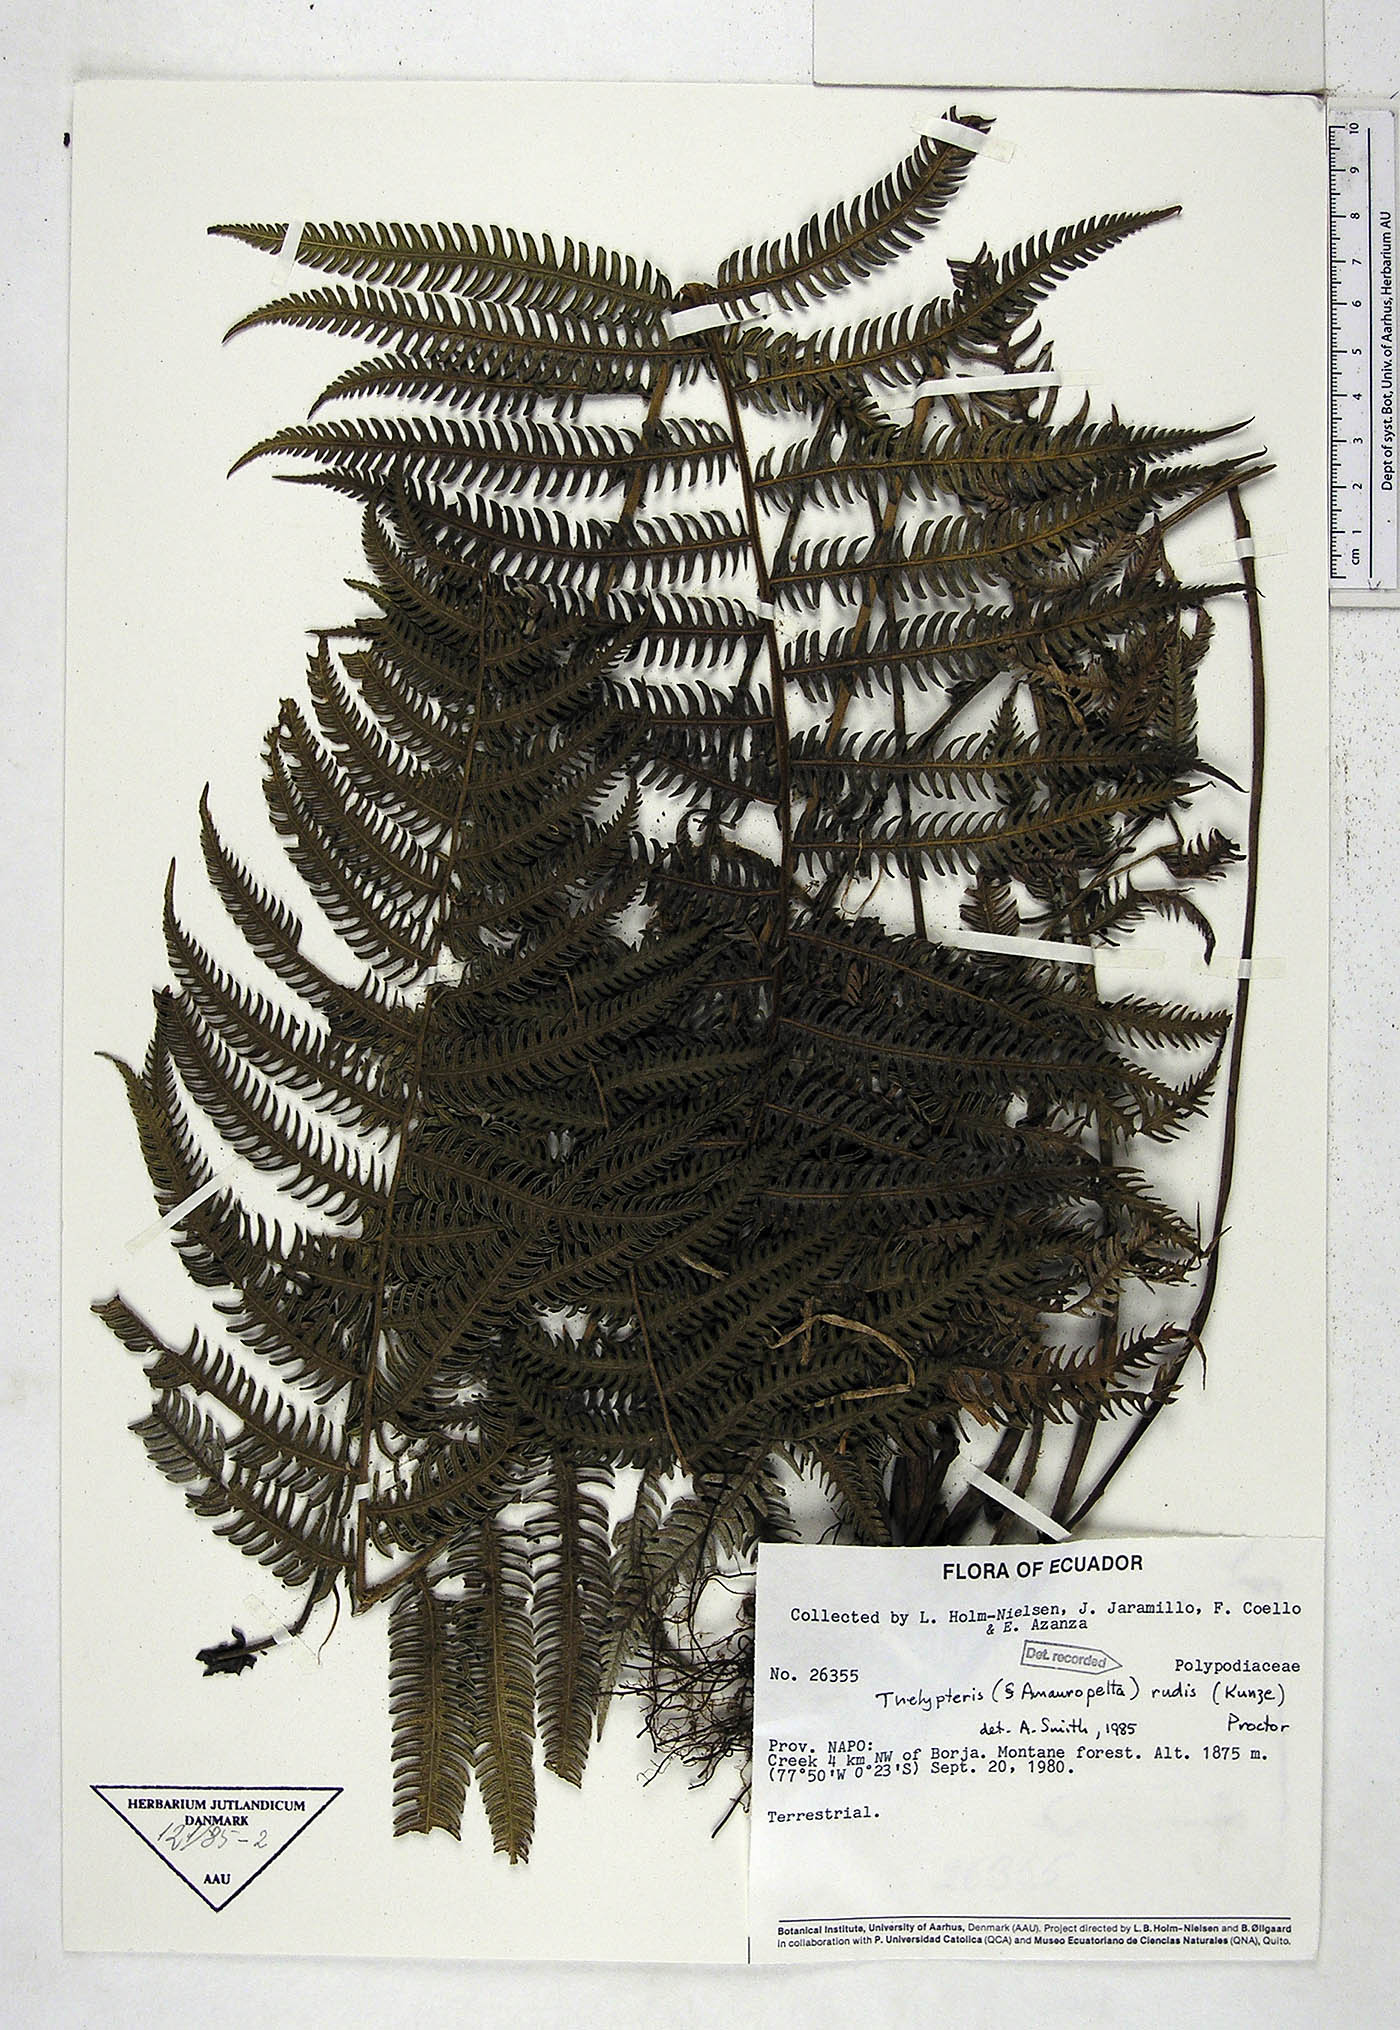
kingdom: Plantae
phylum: Tracheophyta
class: Polypodiopsida
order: Polypodiales
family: Thelypteridaceae
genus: Amauropelta
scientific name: Amauropelta rudis
